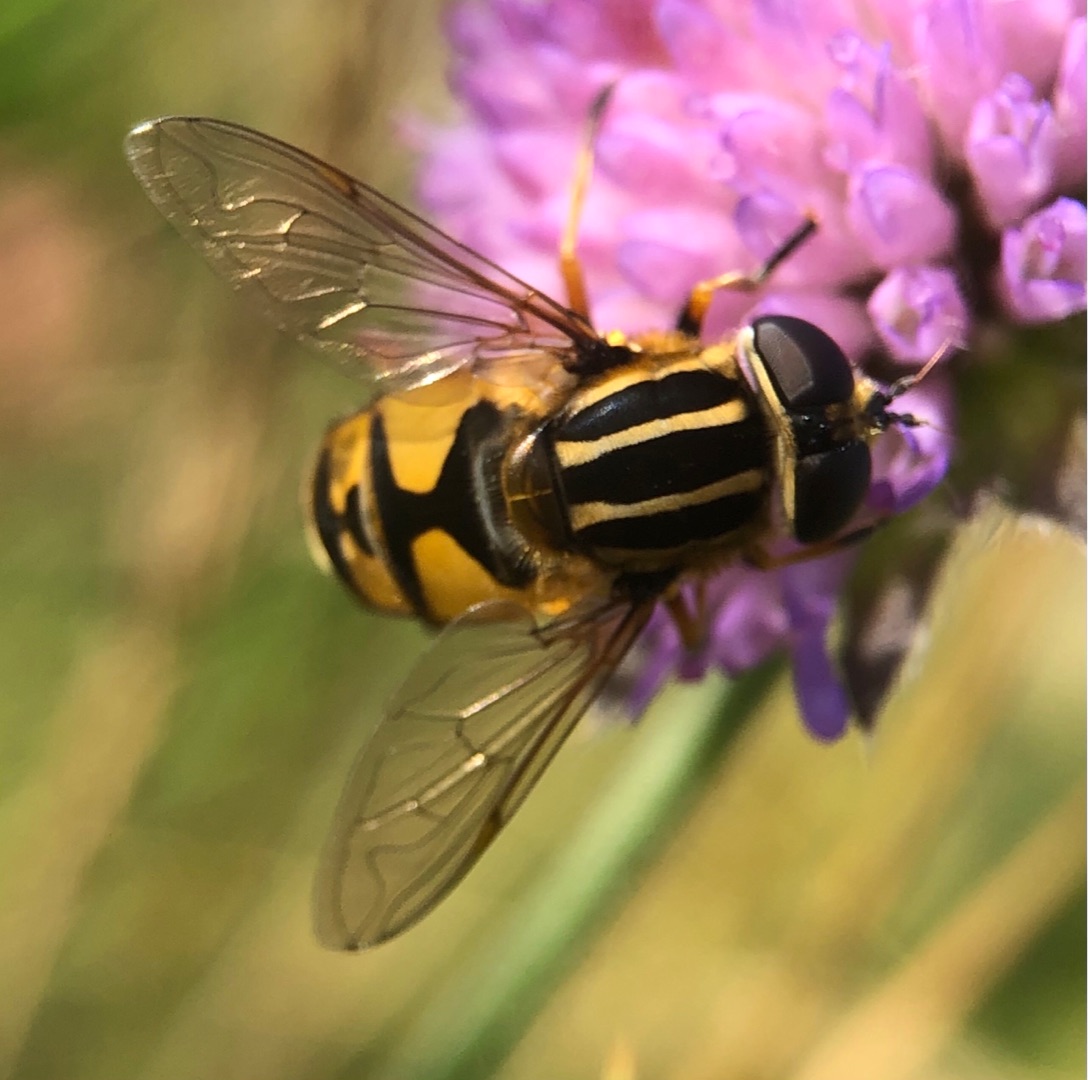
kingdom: Animalia
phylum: Arthropoda
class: Insecta
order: Diptera
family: Syrphidae
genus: Helophilus
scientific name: Helophilus pendulus
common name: Almindelig sumpsvirreflue
